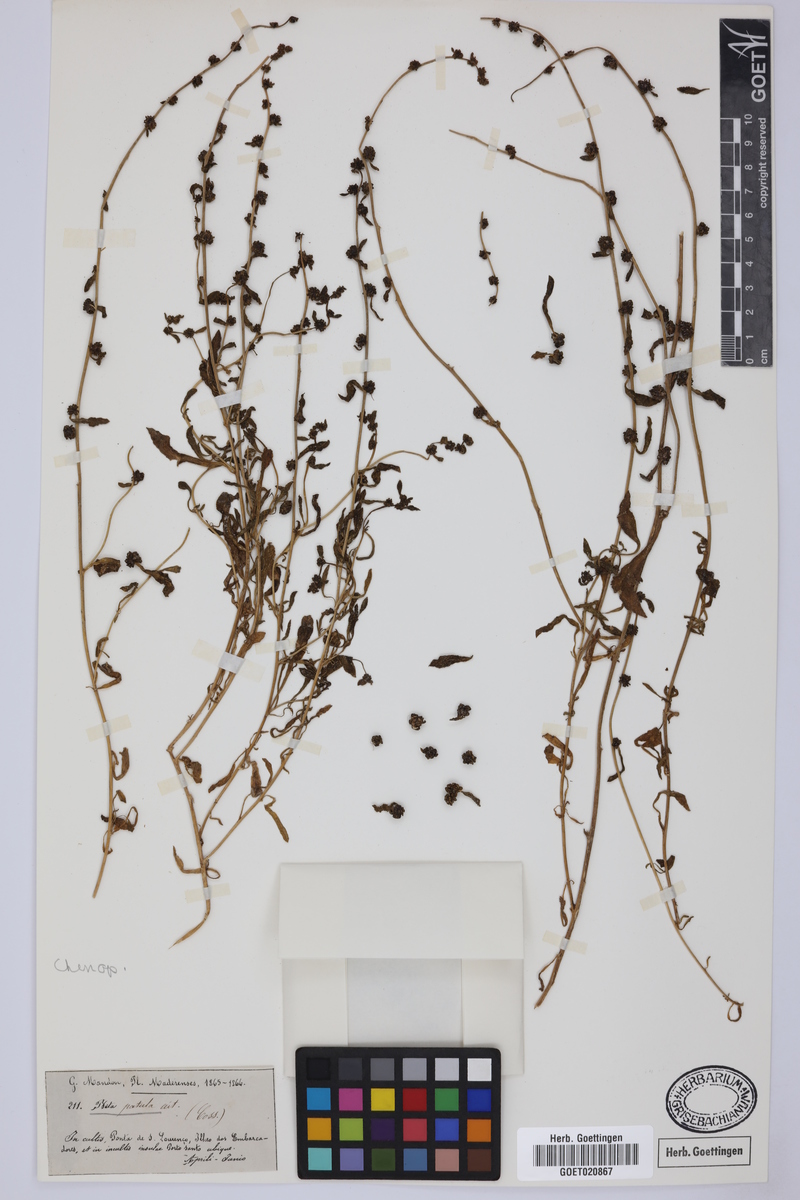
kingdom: Plantae
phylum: Tracheophyta
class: Magnoliopsida
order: Caryophyllales
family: Amaranthaceae
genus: Beta
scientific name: Beta patula
